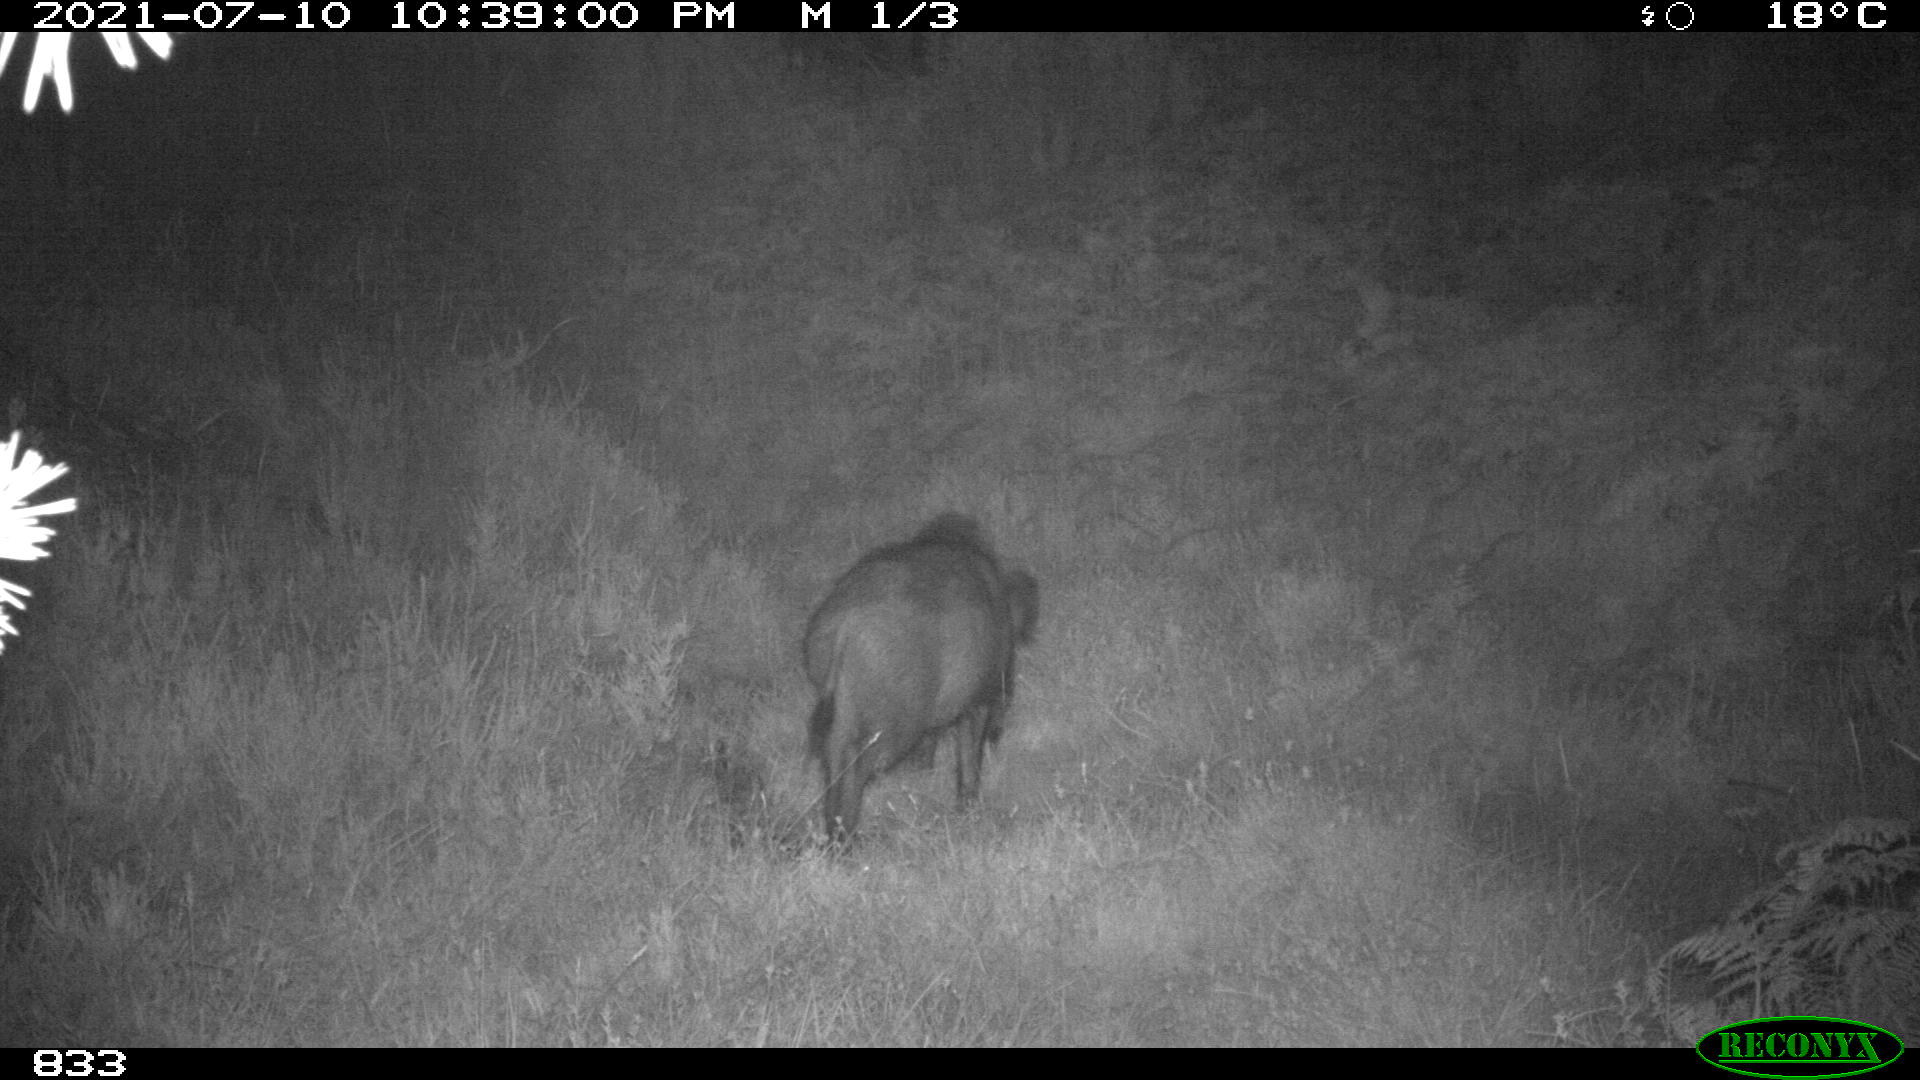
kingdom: Animalia
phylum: Chordata
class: Mammalia
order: Artiodactyla
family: Suidae
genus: Sus
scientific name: Sus scrofa
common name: Wild boar
